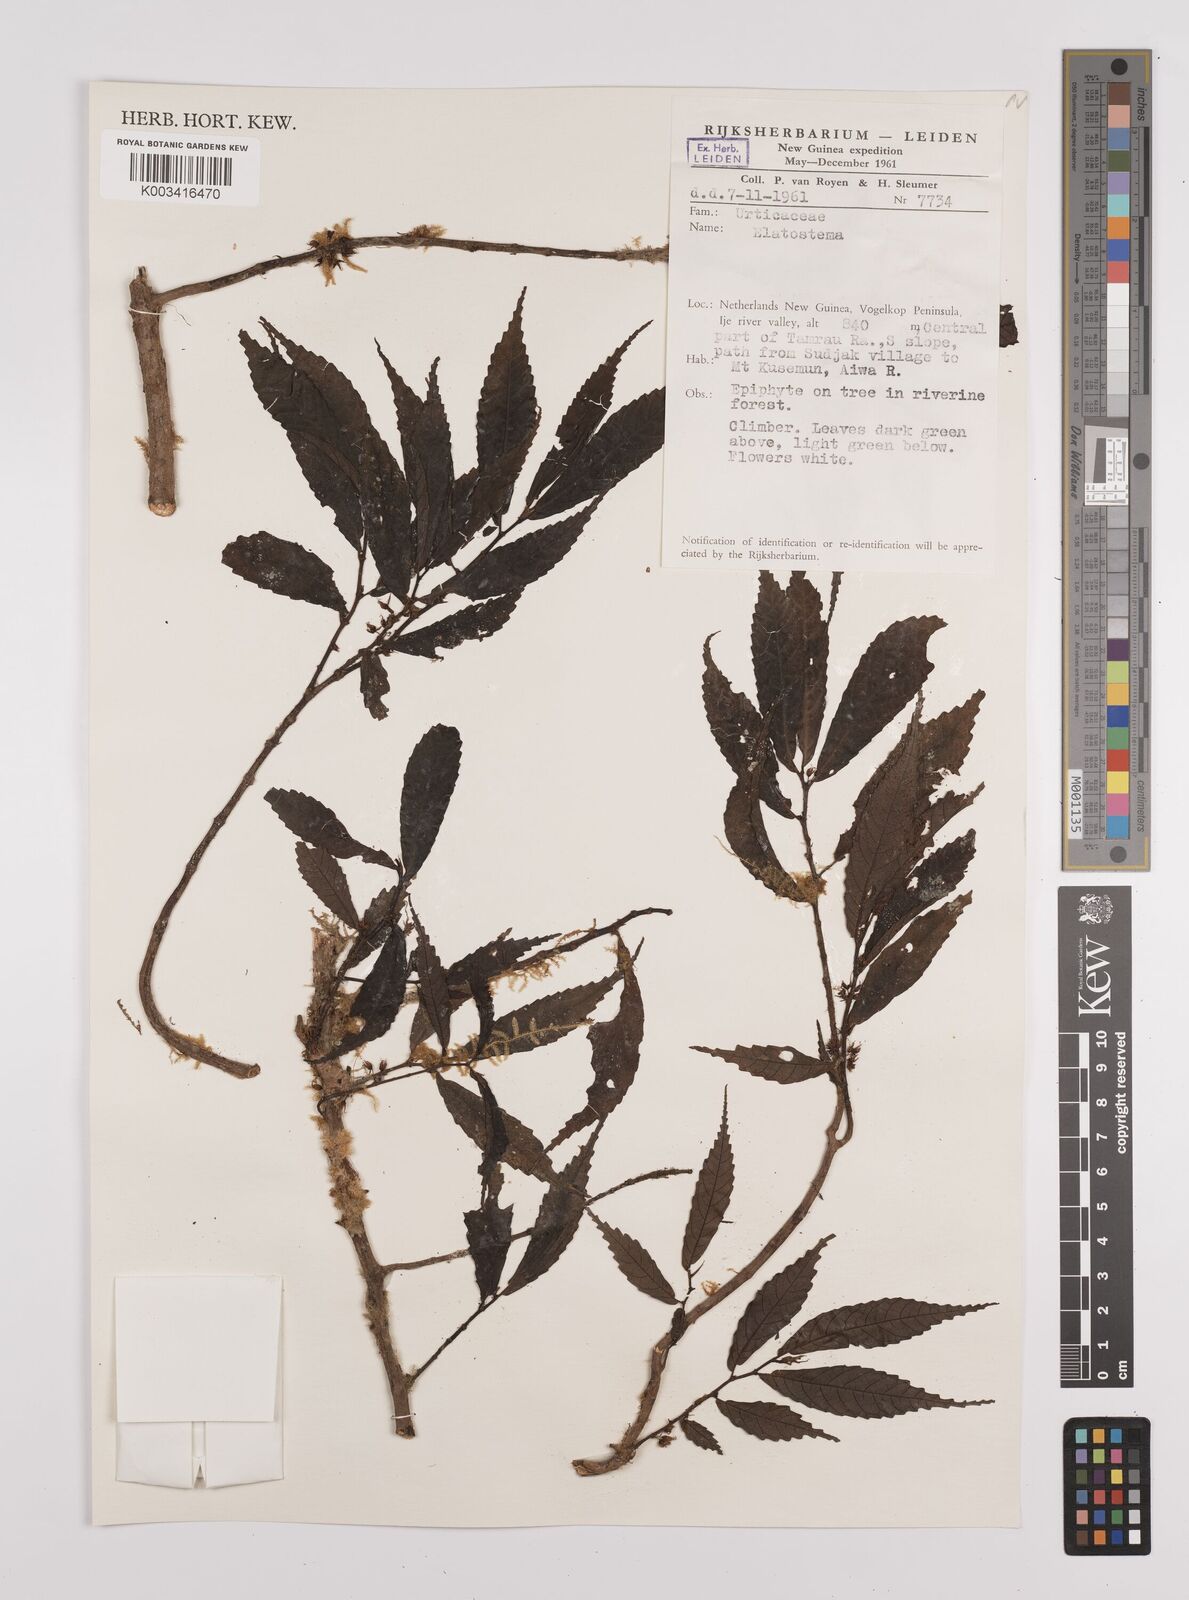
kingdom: Plantae
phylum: Tracheophyta
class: Magnoliopsida
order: Rosales
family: Urticaceae
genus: Elatostema
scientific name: Elatostema
